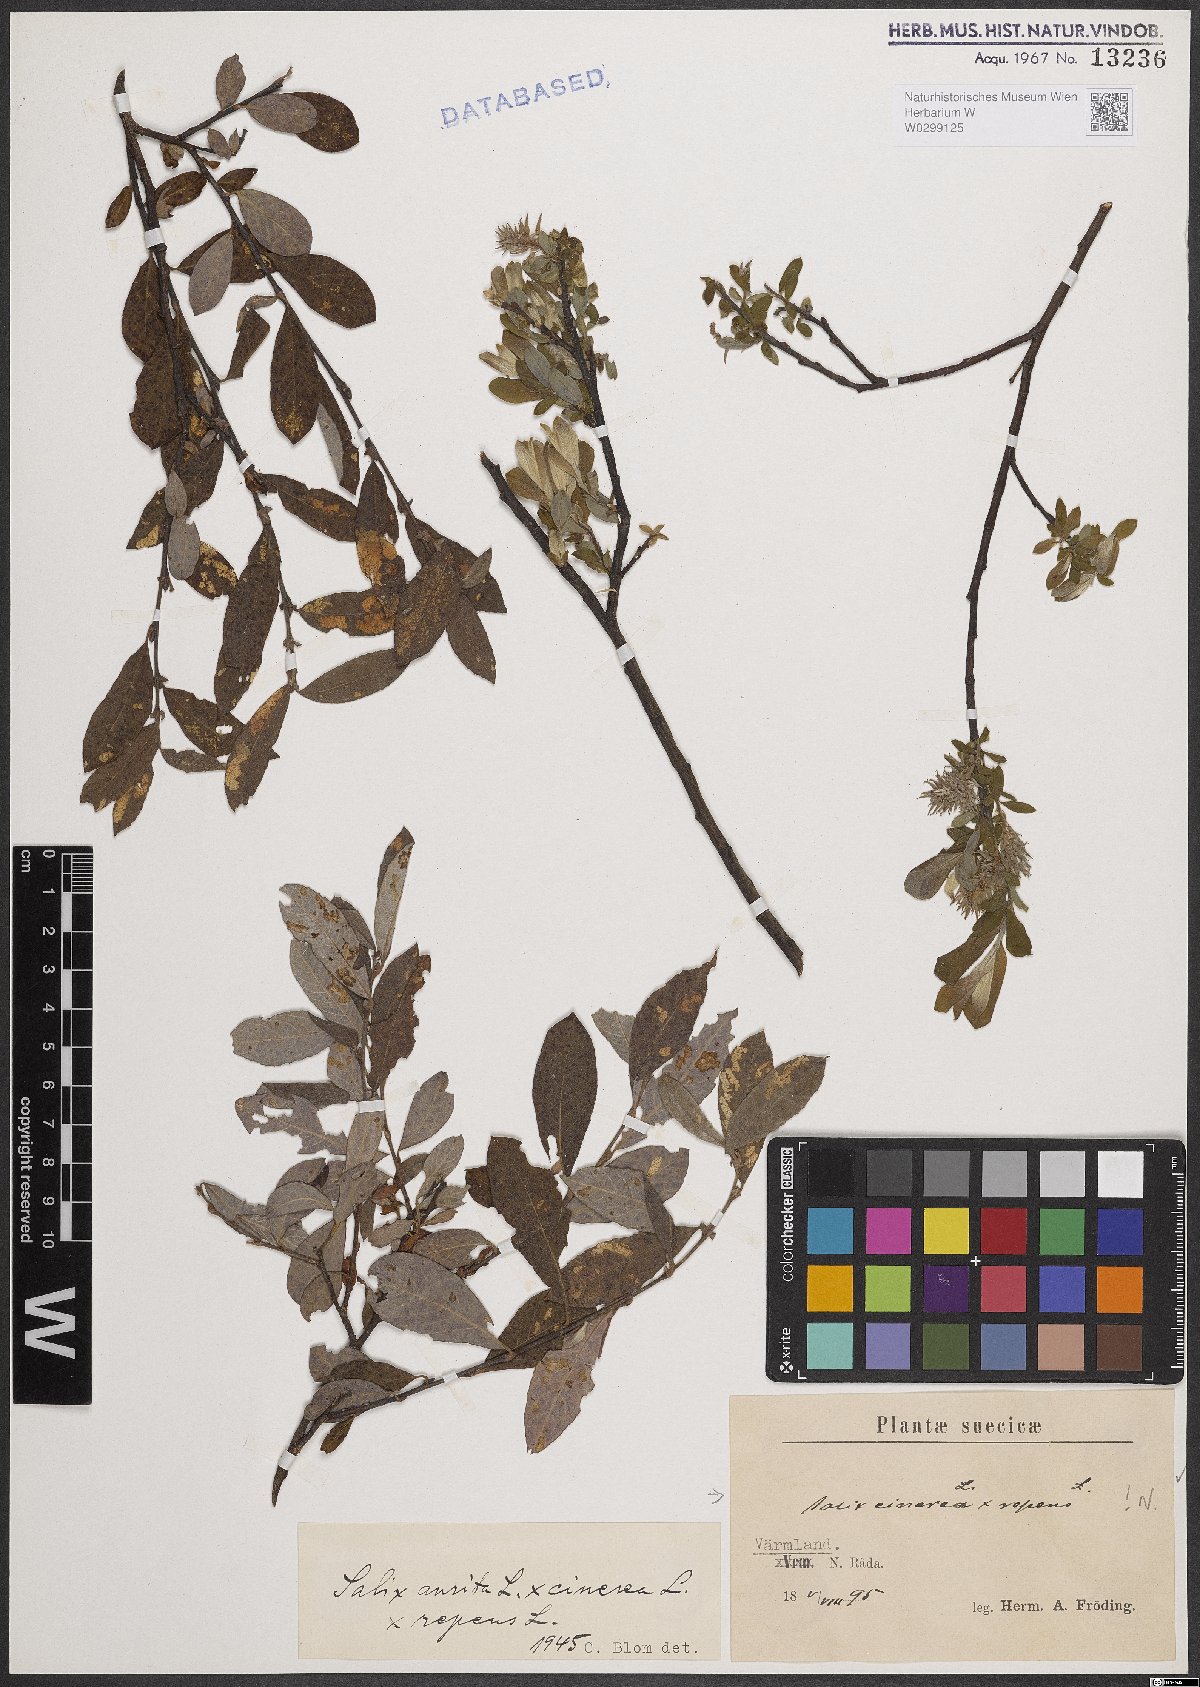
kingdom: Plantae
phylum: Tracheophyta
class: Magnoliopsida
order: Malpighiales
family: Salicaceae
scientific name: Salicaceae
